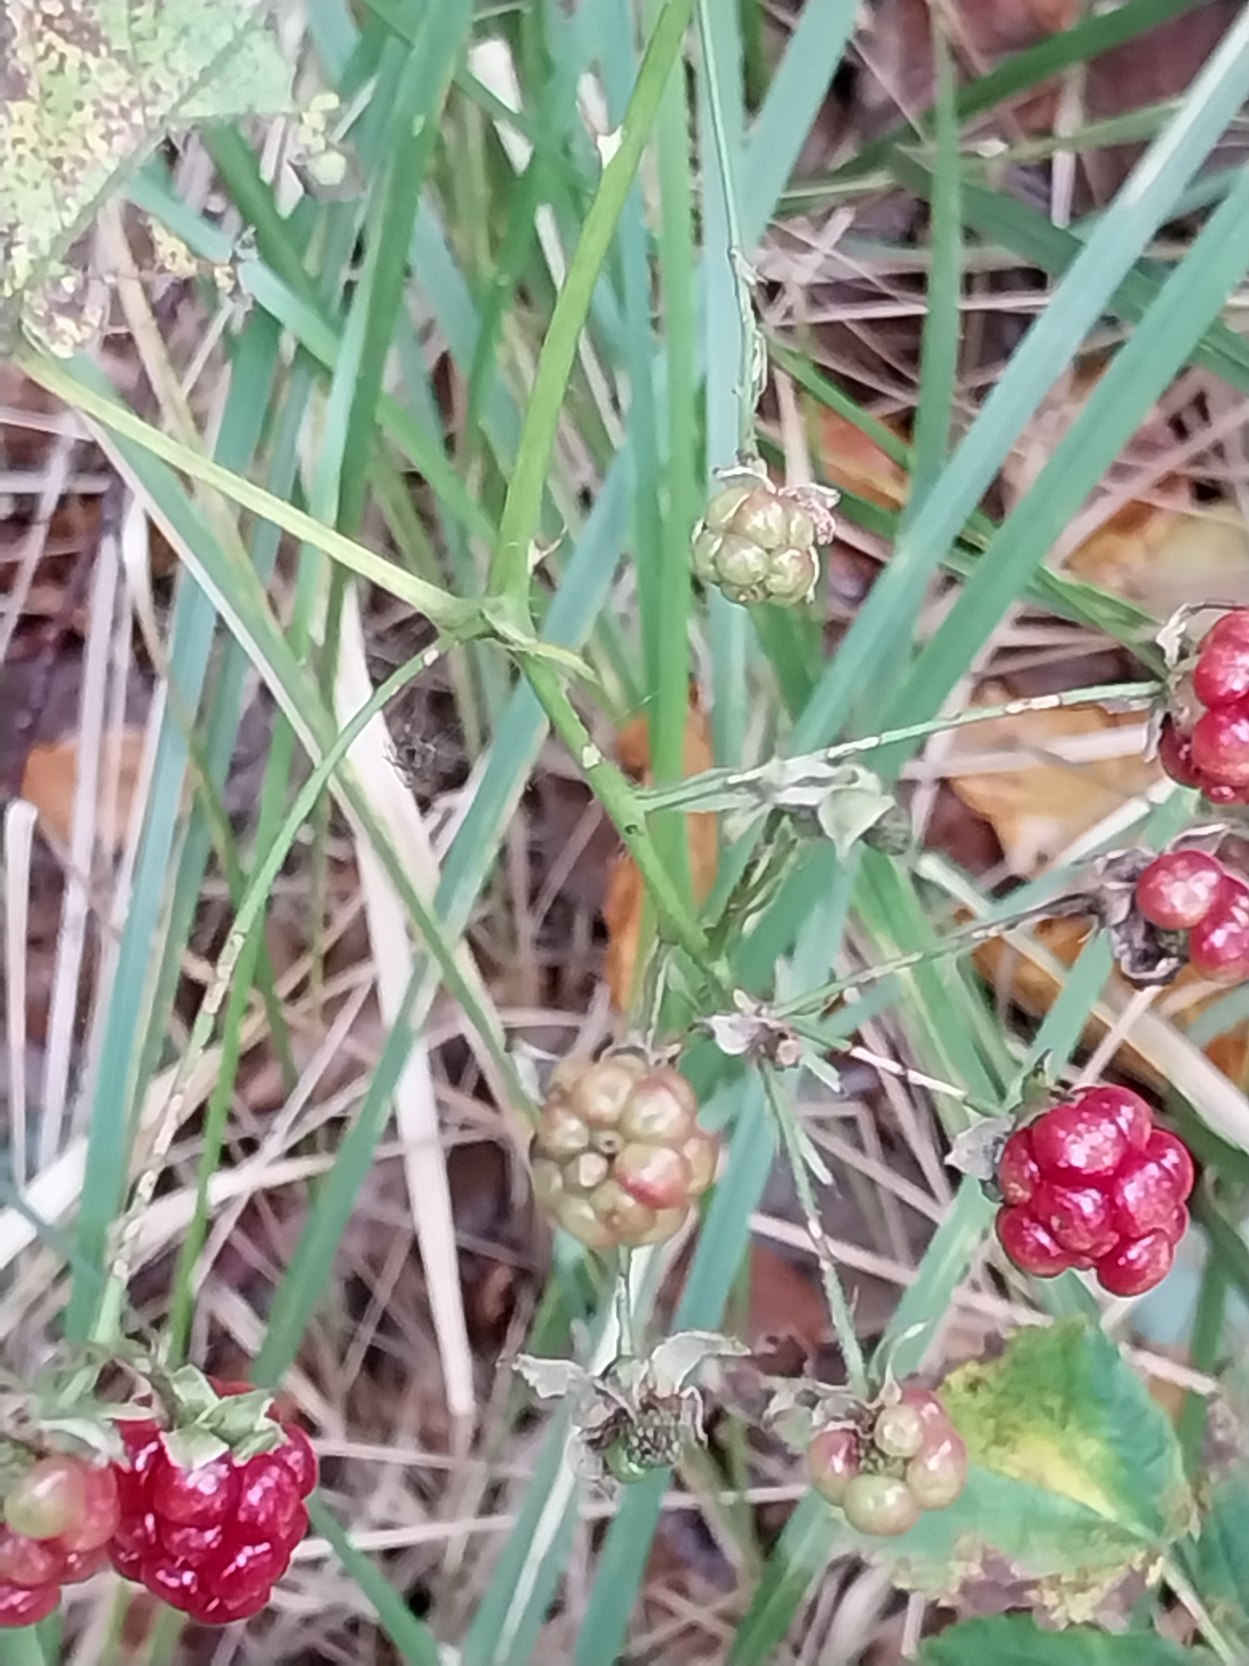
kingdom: Plantae
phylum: Tracheophyta
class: Magnoliopsida
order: Rosales
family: Rosaceae
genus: Rubus
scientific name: Rubus plicatus
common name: Almindelig brombær
